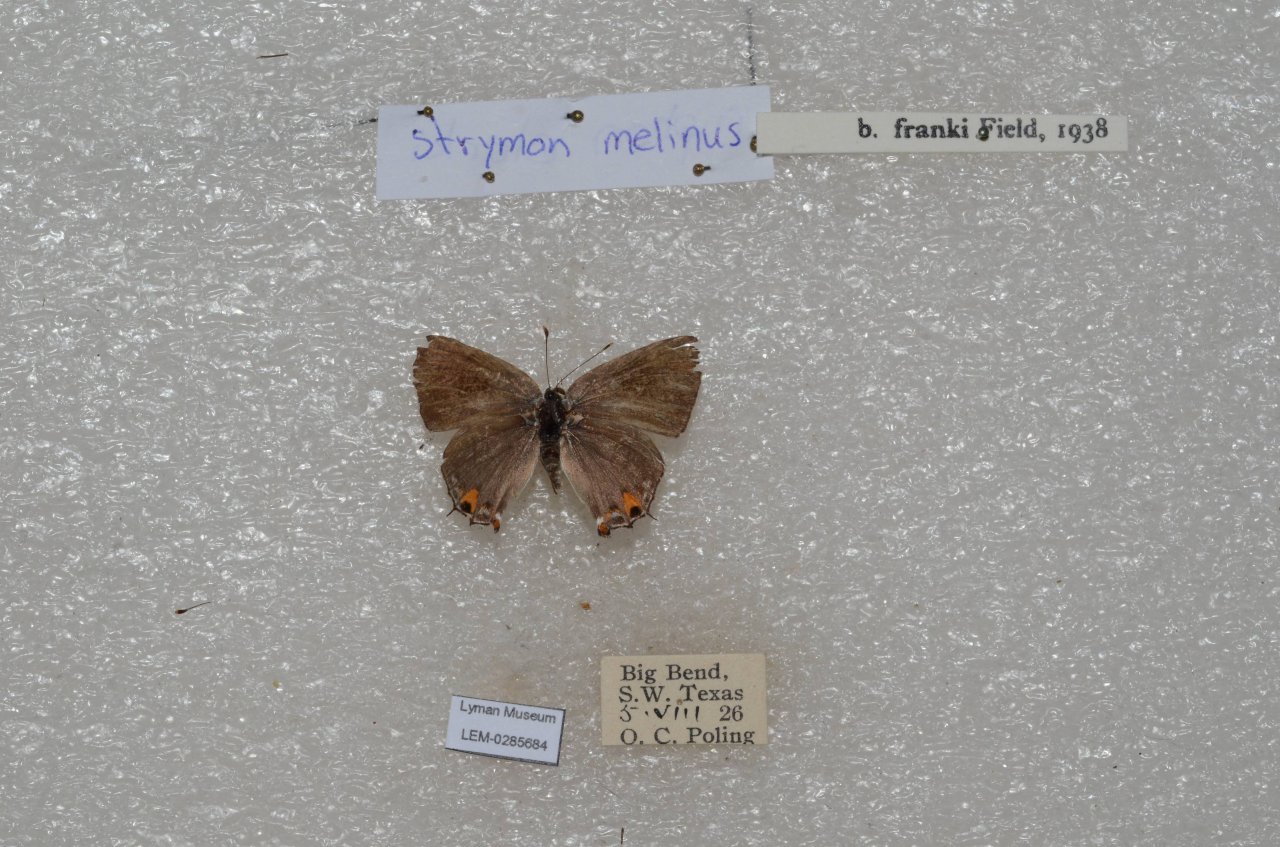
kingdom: Animalia
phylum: Arthropoda
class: Insecta
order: Lepidoptera
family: Lycaenidae
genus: Strymon
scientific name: Strymon melinus
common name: Gray Hairstreak
